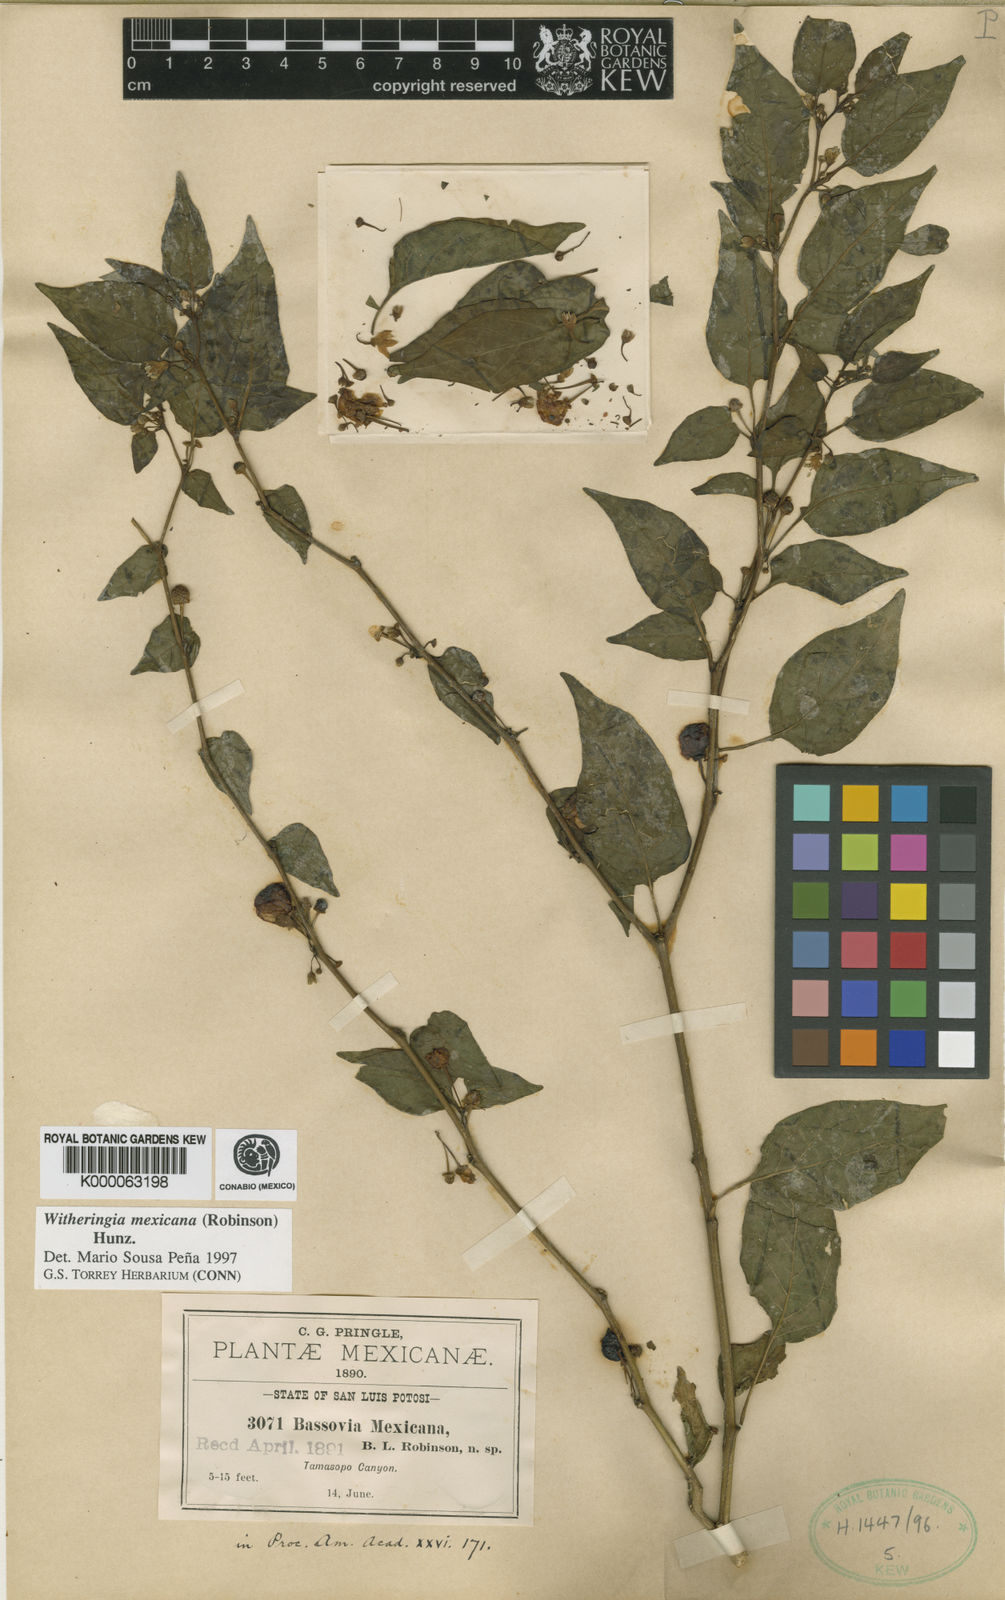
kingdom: Plantae
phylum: Tracheophyta
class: Magnoliopsida
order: Solanales
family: Solanaceae
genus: Witheringia
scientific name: Witheringia mexicana
